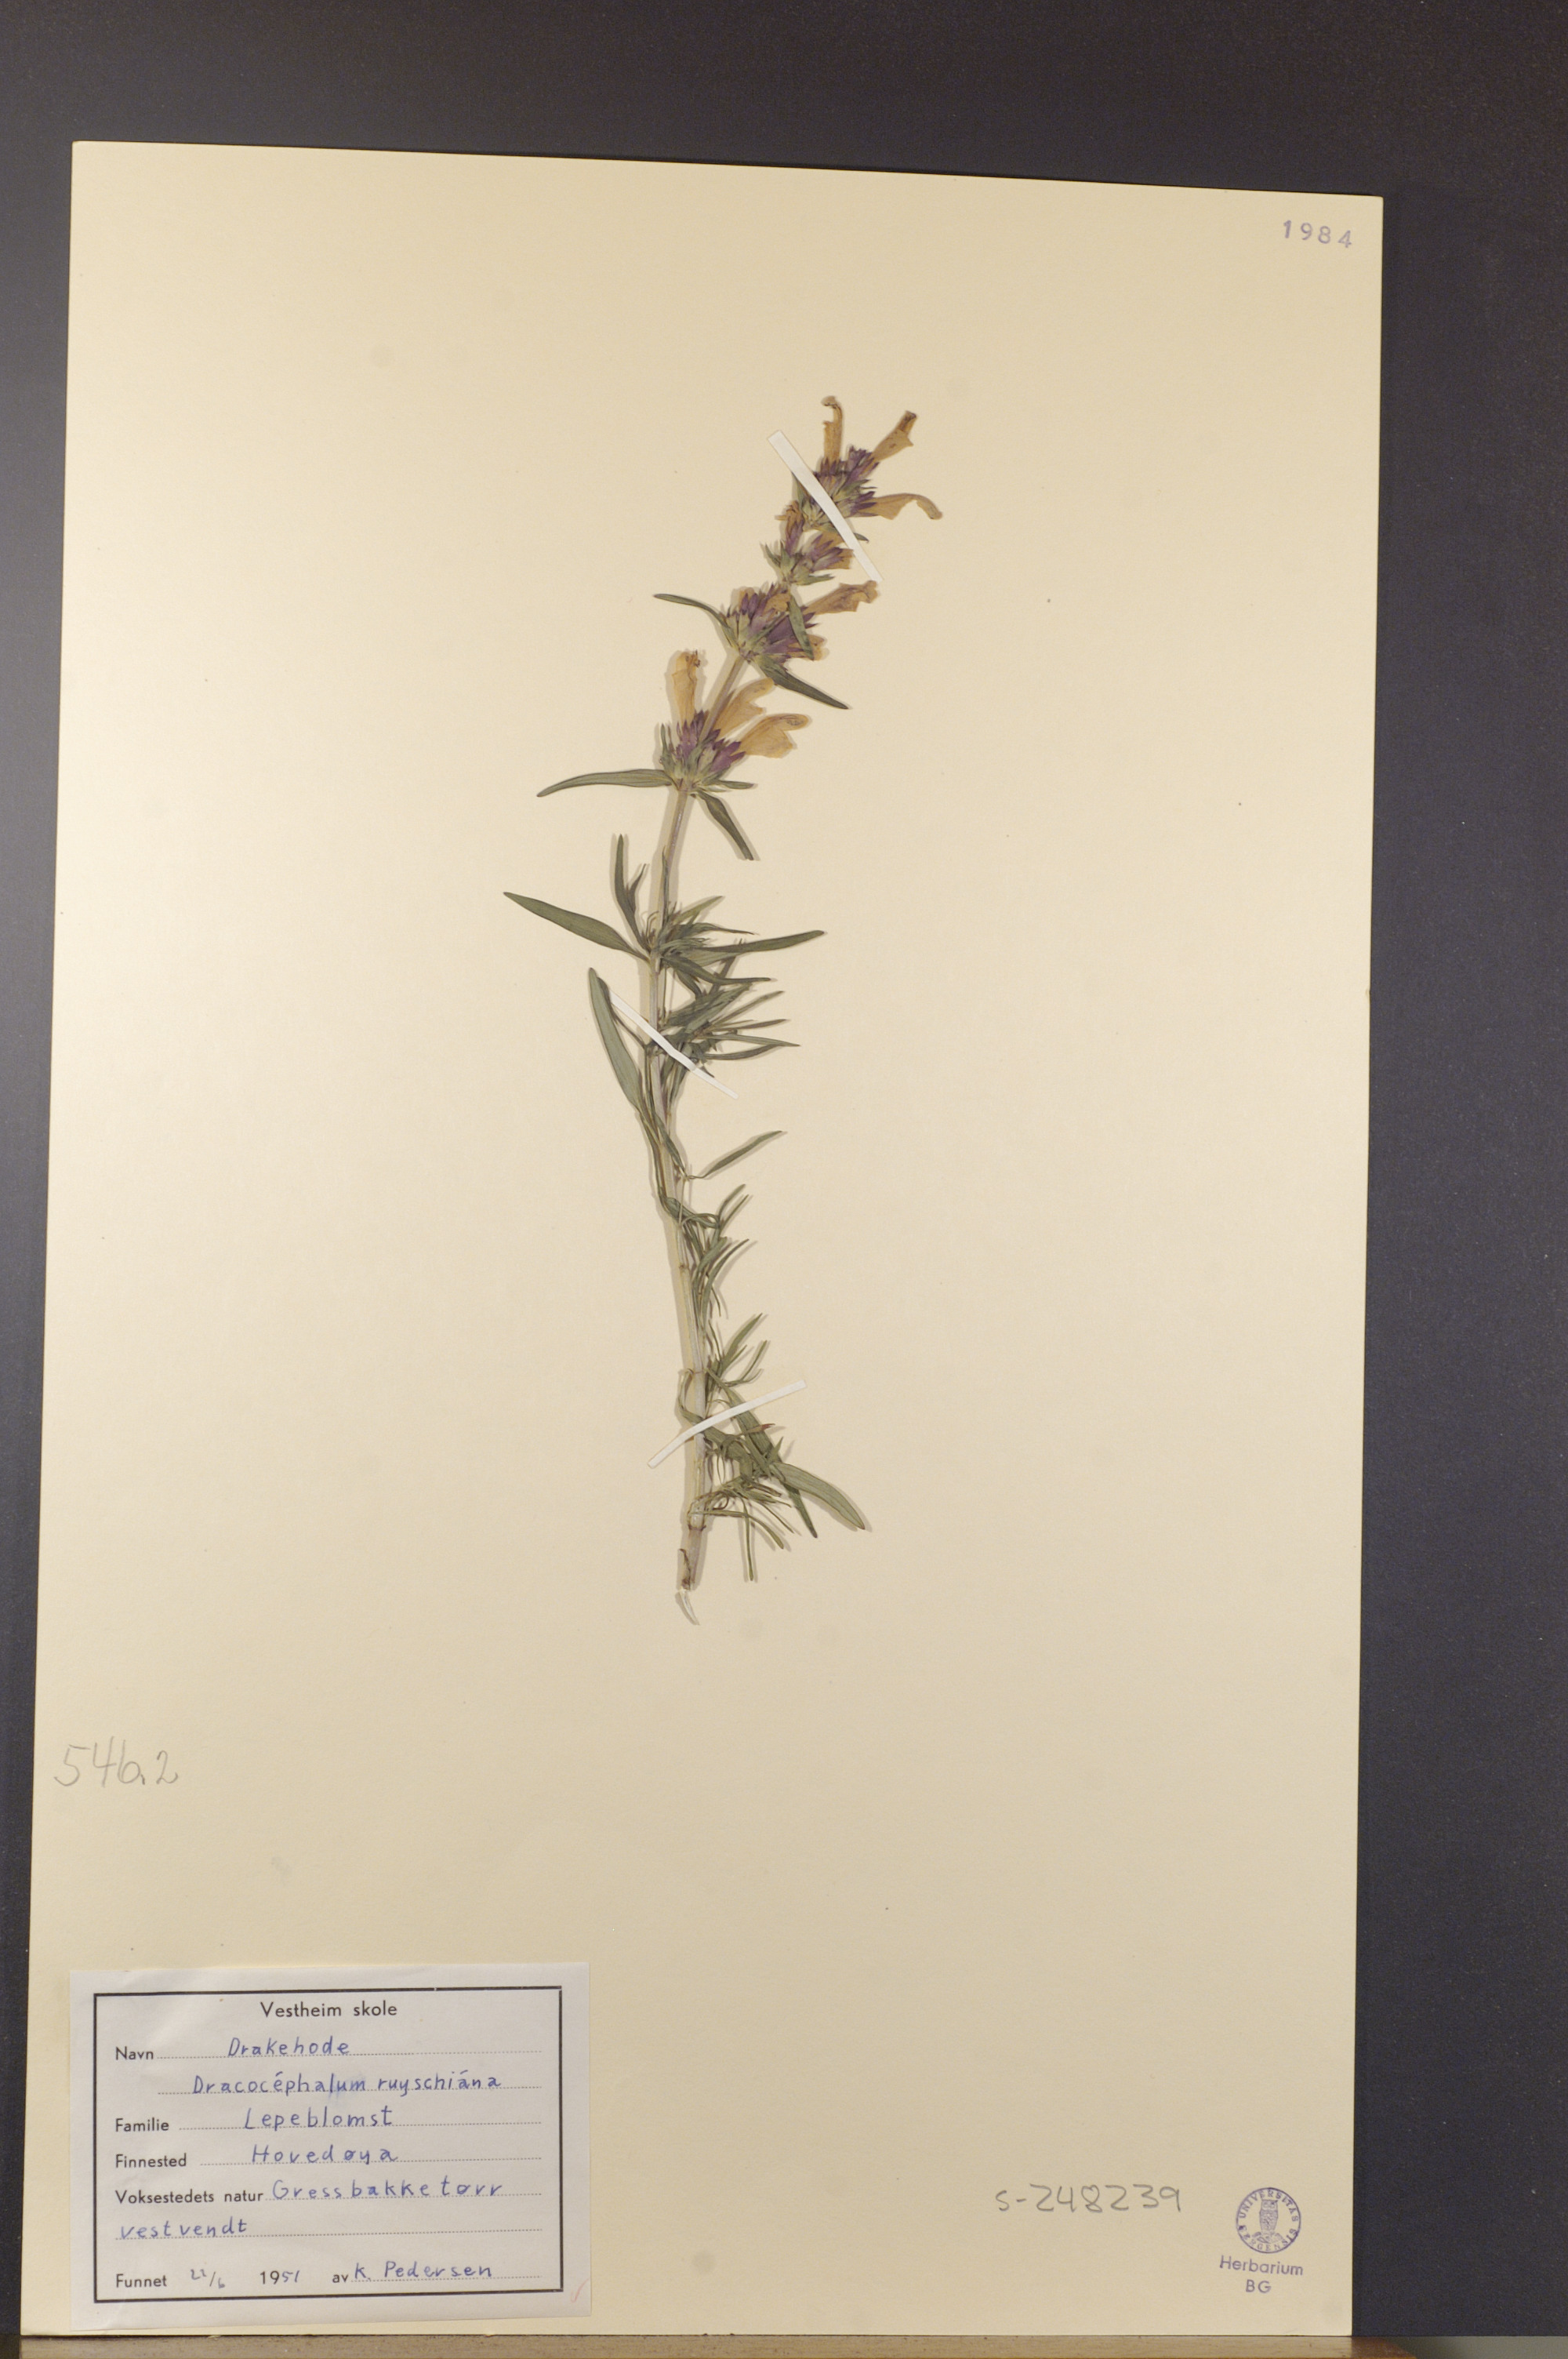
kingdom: Plantae
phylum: Tracheophyta
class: Magnoliopsida
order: Lamiales
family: Lamiaceae
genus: Dracocephalum
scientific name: Dracocephalum ruyschiana
